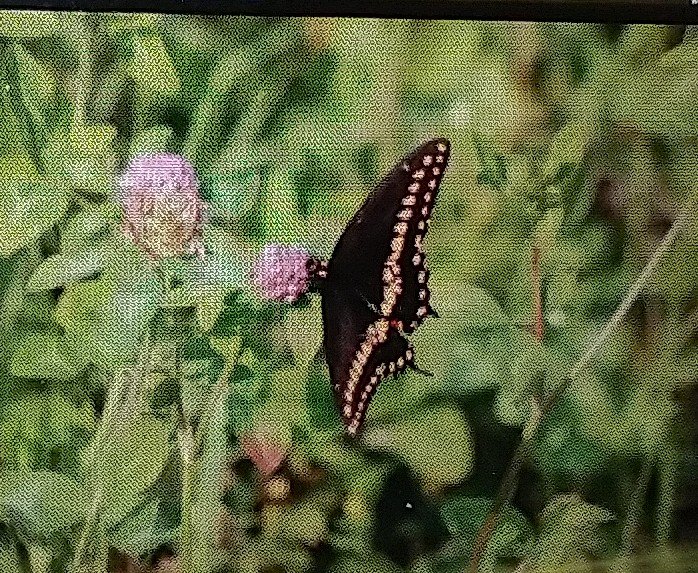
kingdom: Animalia
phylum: Arthropoda
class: Insecta
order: Lepidoptera
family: Papilionidae
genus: Papilio
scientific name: Papilio polyxenes
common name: Black Swallowtail
